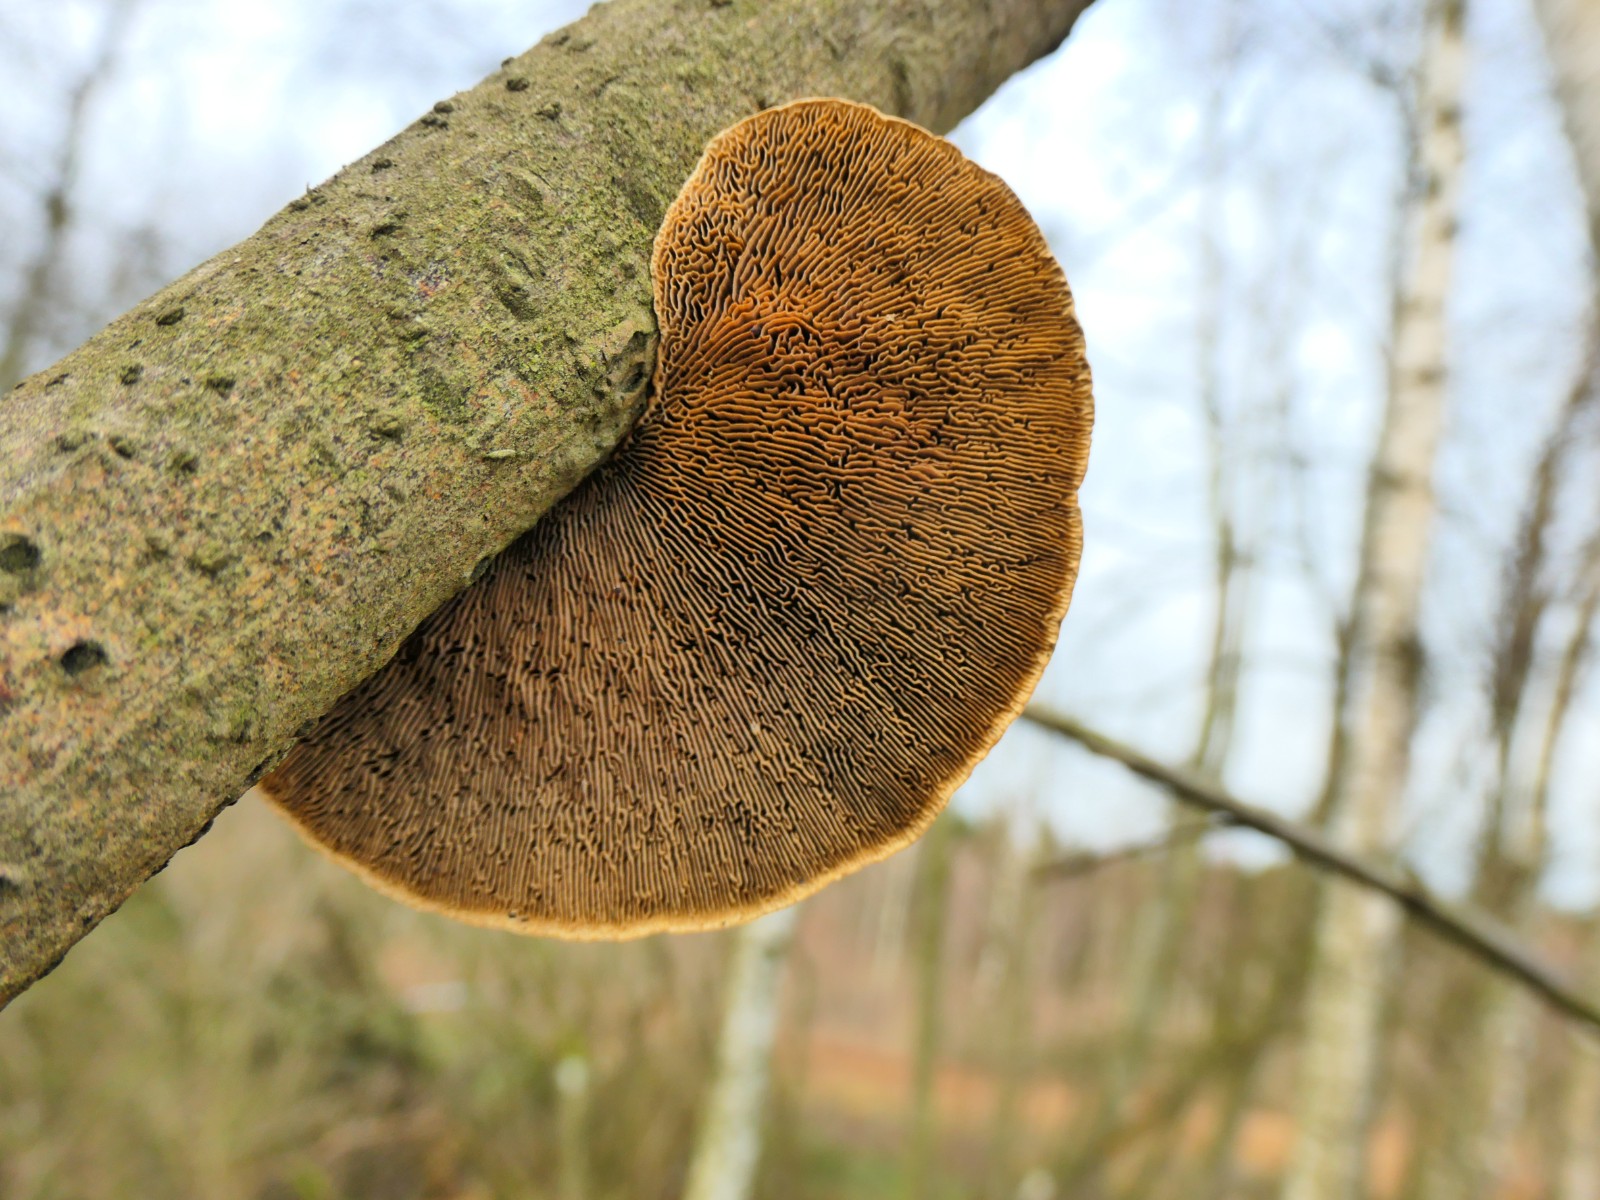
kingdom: Fungi
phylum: Basidiomycota
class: Agaricomycetes
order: Polyporales
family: Polyporaceae
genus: Daedaleopsis
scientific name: Daedaleopsis confragosa
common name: rødmende læderporesvamp
